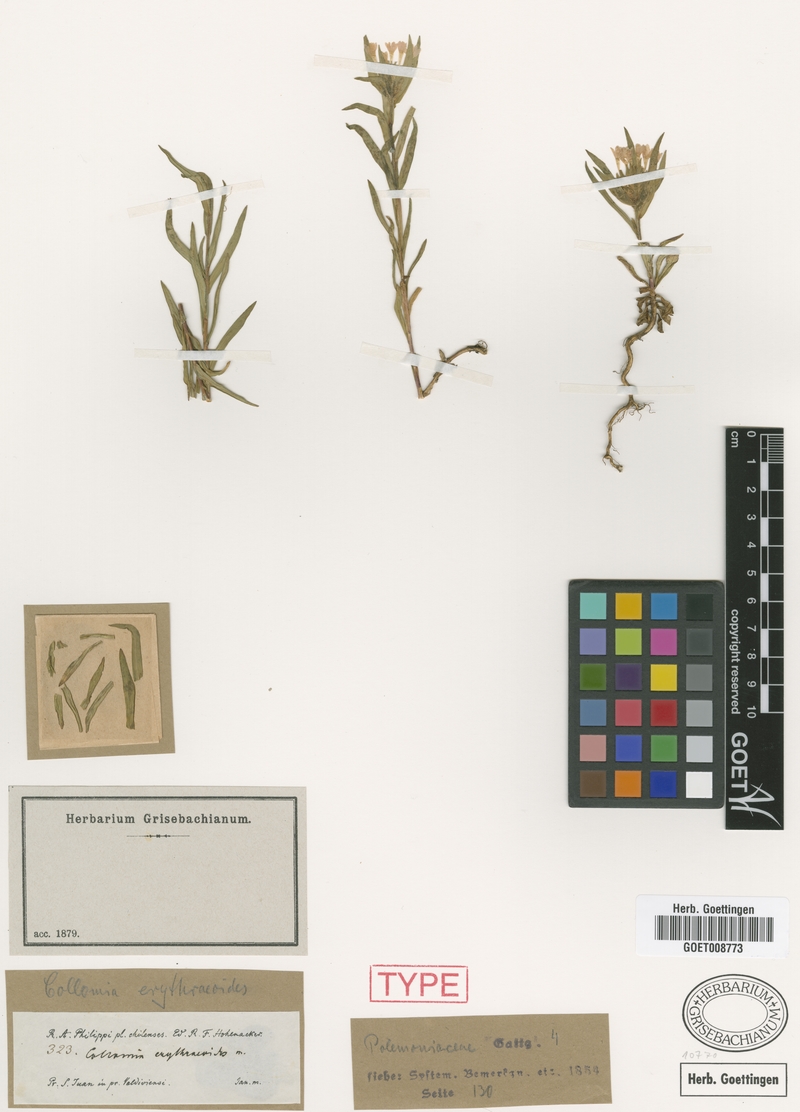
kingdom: Plantae
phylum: Tracheophyta
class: Magnoliopsida
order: Ericales
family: Polemoniaceae
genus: Collomia
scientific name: Collomia biflora
